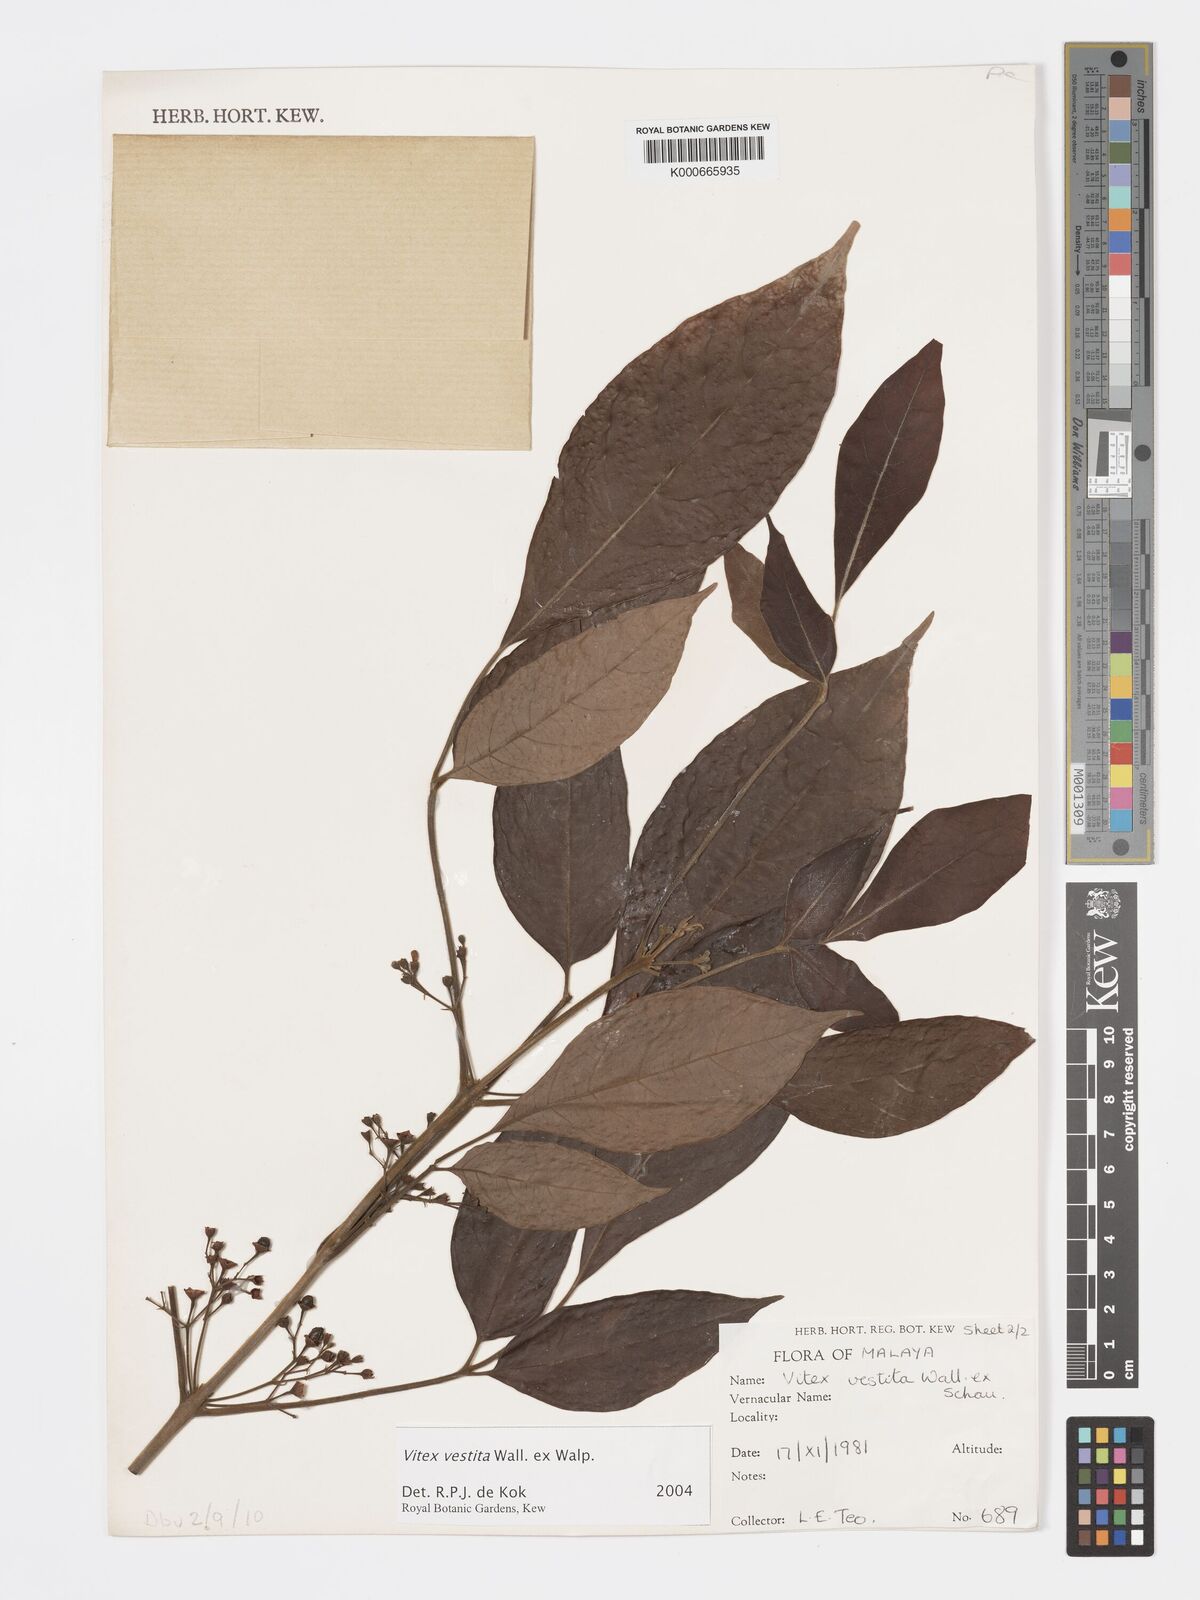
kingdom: Plantae
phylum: Tracheophyta
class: Magnoliopsida
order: Lamiales
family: Lamiaceae
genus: Vitex
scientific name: Vitex vestita
